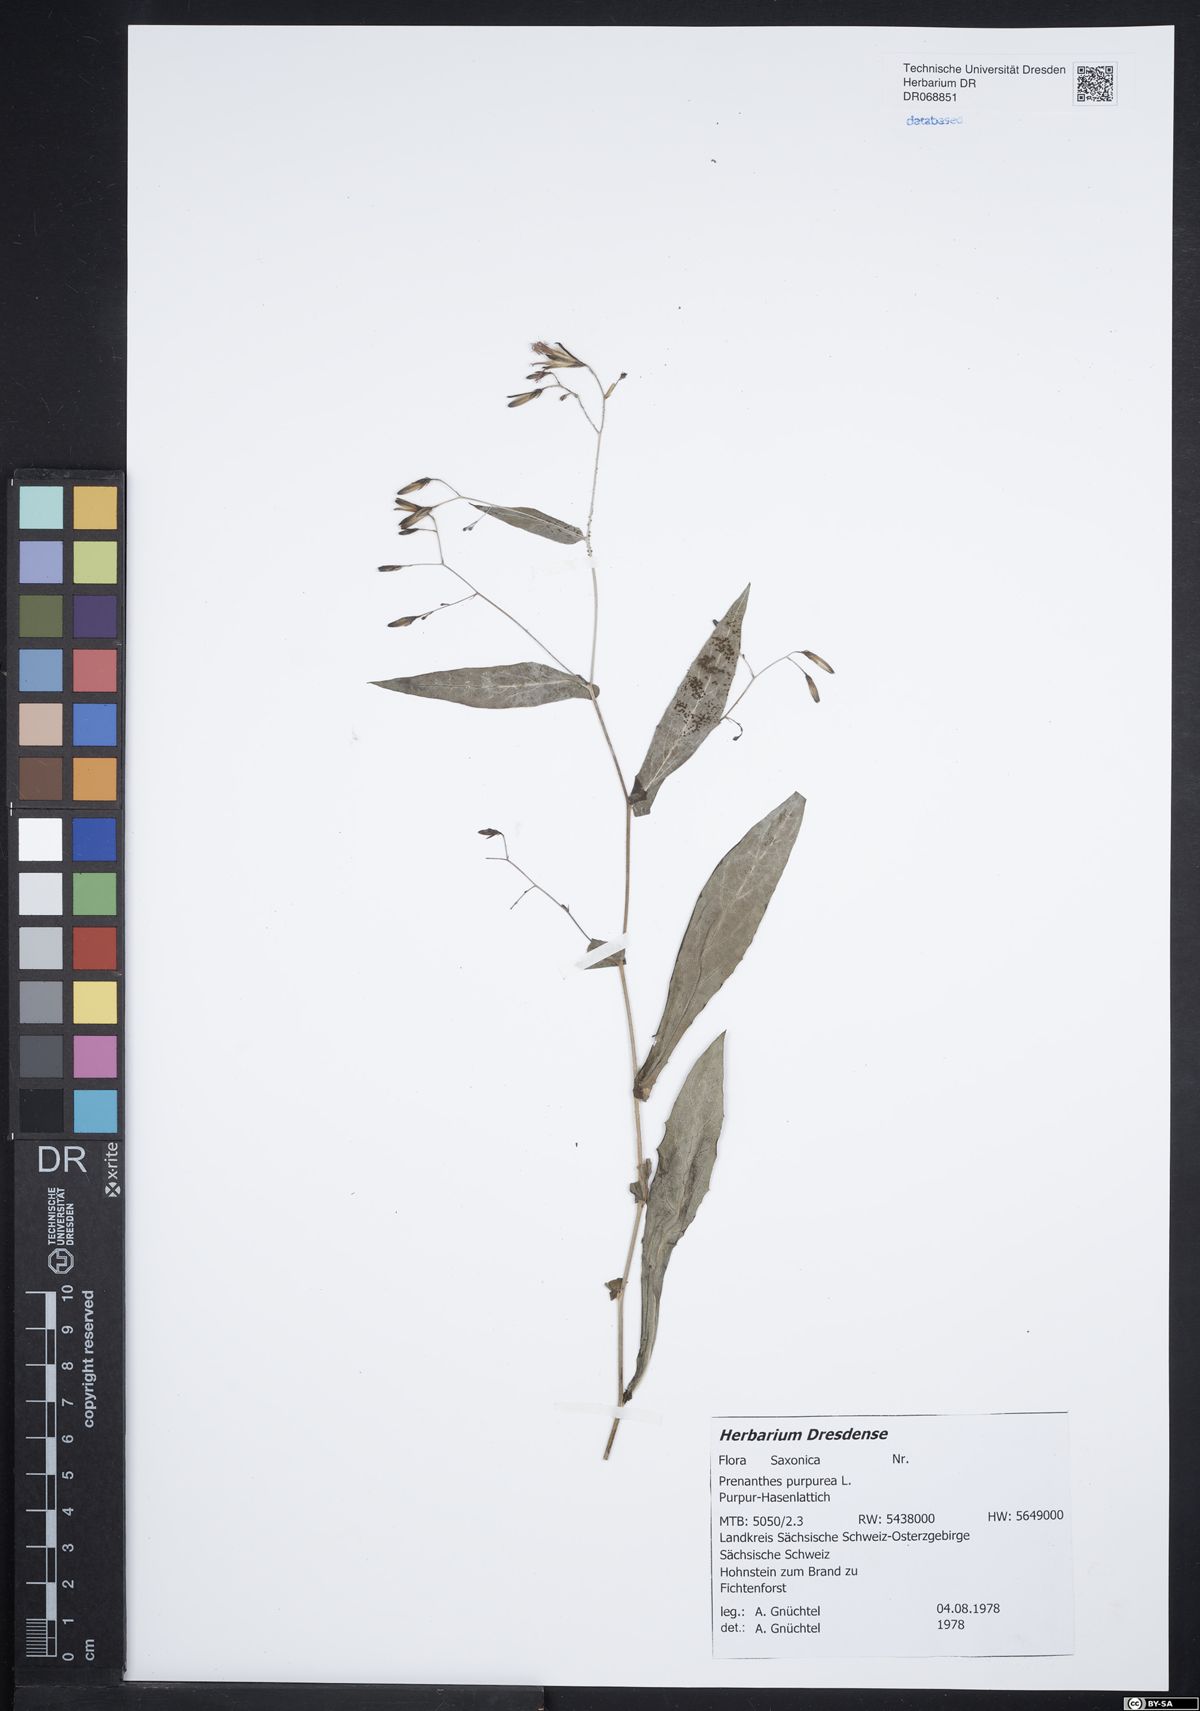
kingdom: Plantae
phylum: Tracheophyta
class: Magnoliopsida
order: Asterales
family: Asteraceae
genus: Prenanthes
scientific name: Prenanthes purpurea
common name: Purple lettuce
